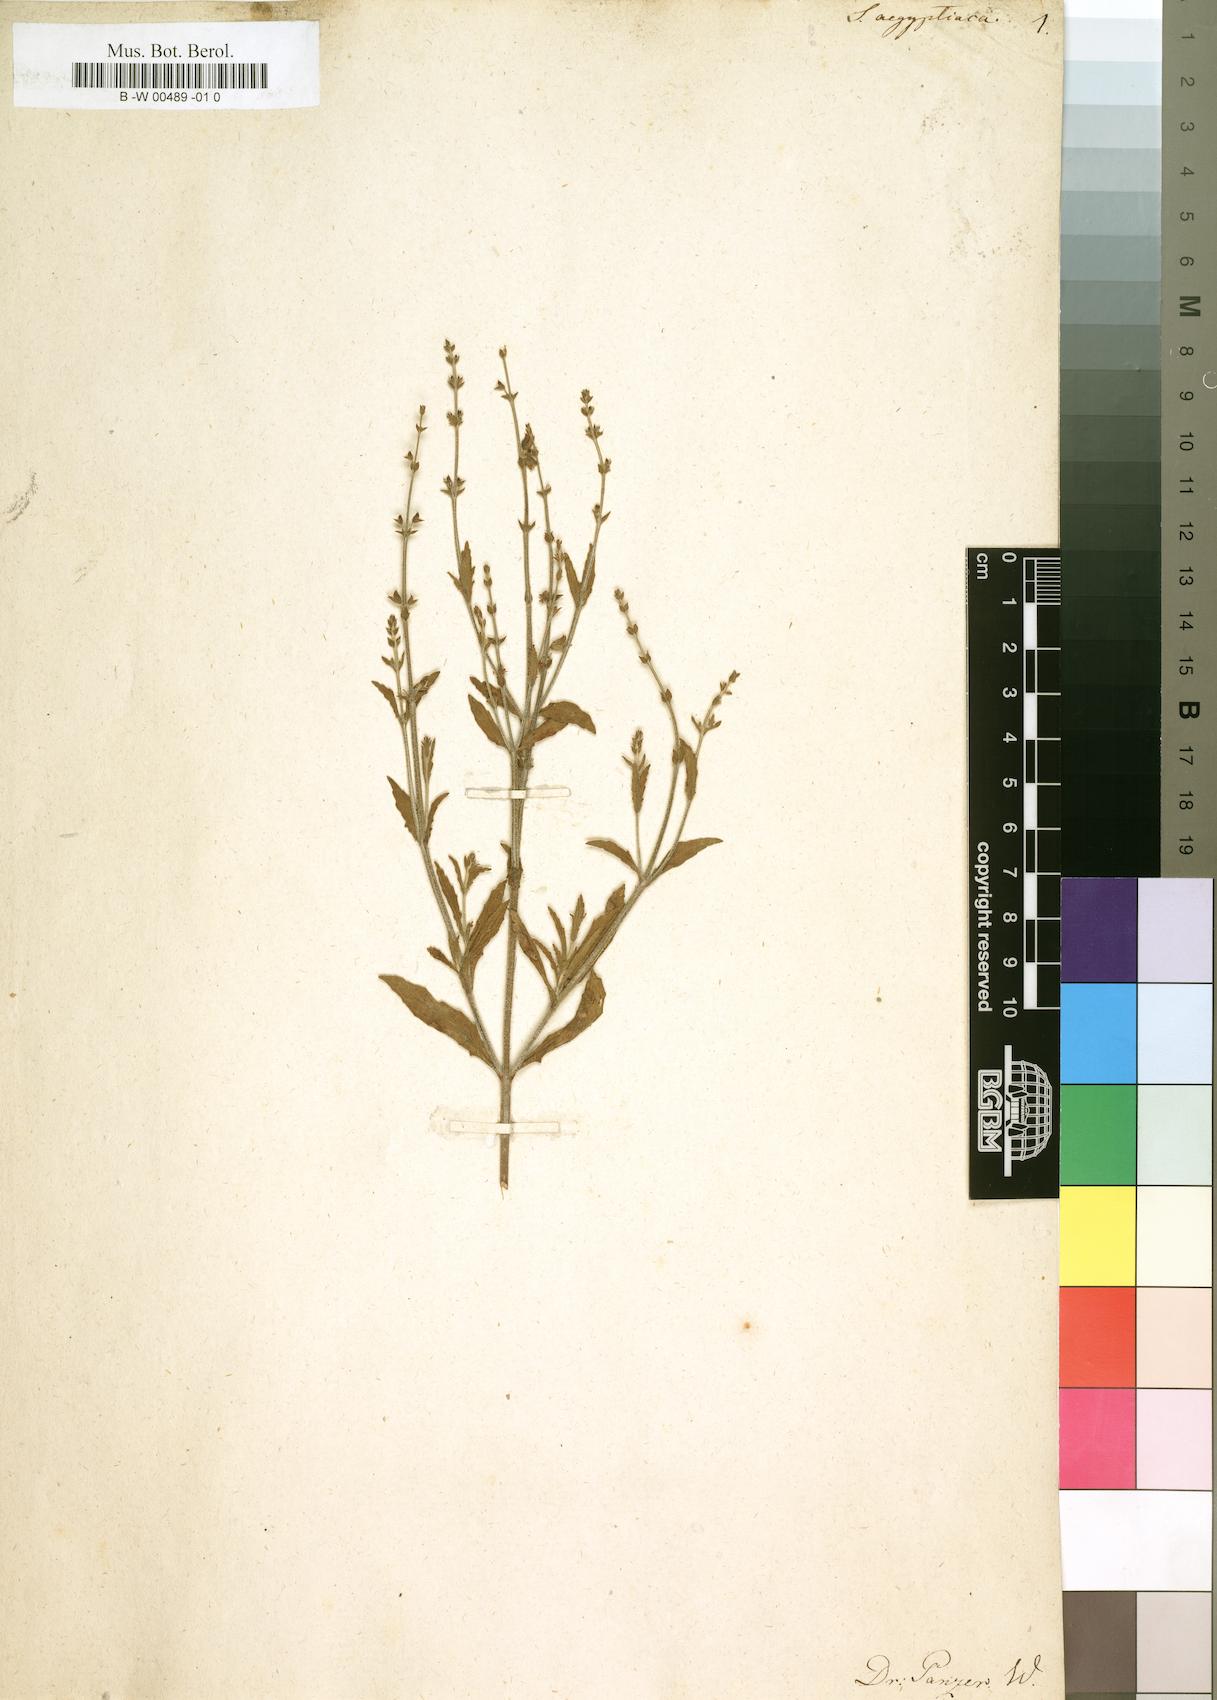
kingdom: Plantae
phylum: Tracheophyta
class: Magnoliopsida
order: Lamiales
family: Lamiaceae
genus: Salvia
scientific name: Salvia aegyptiaca
